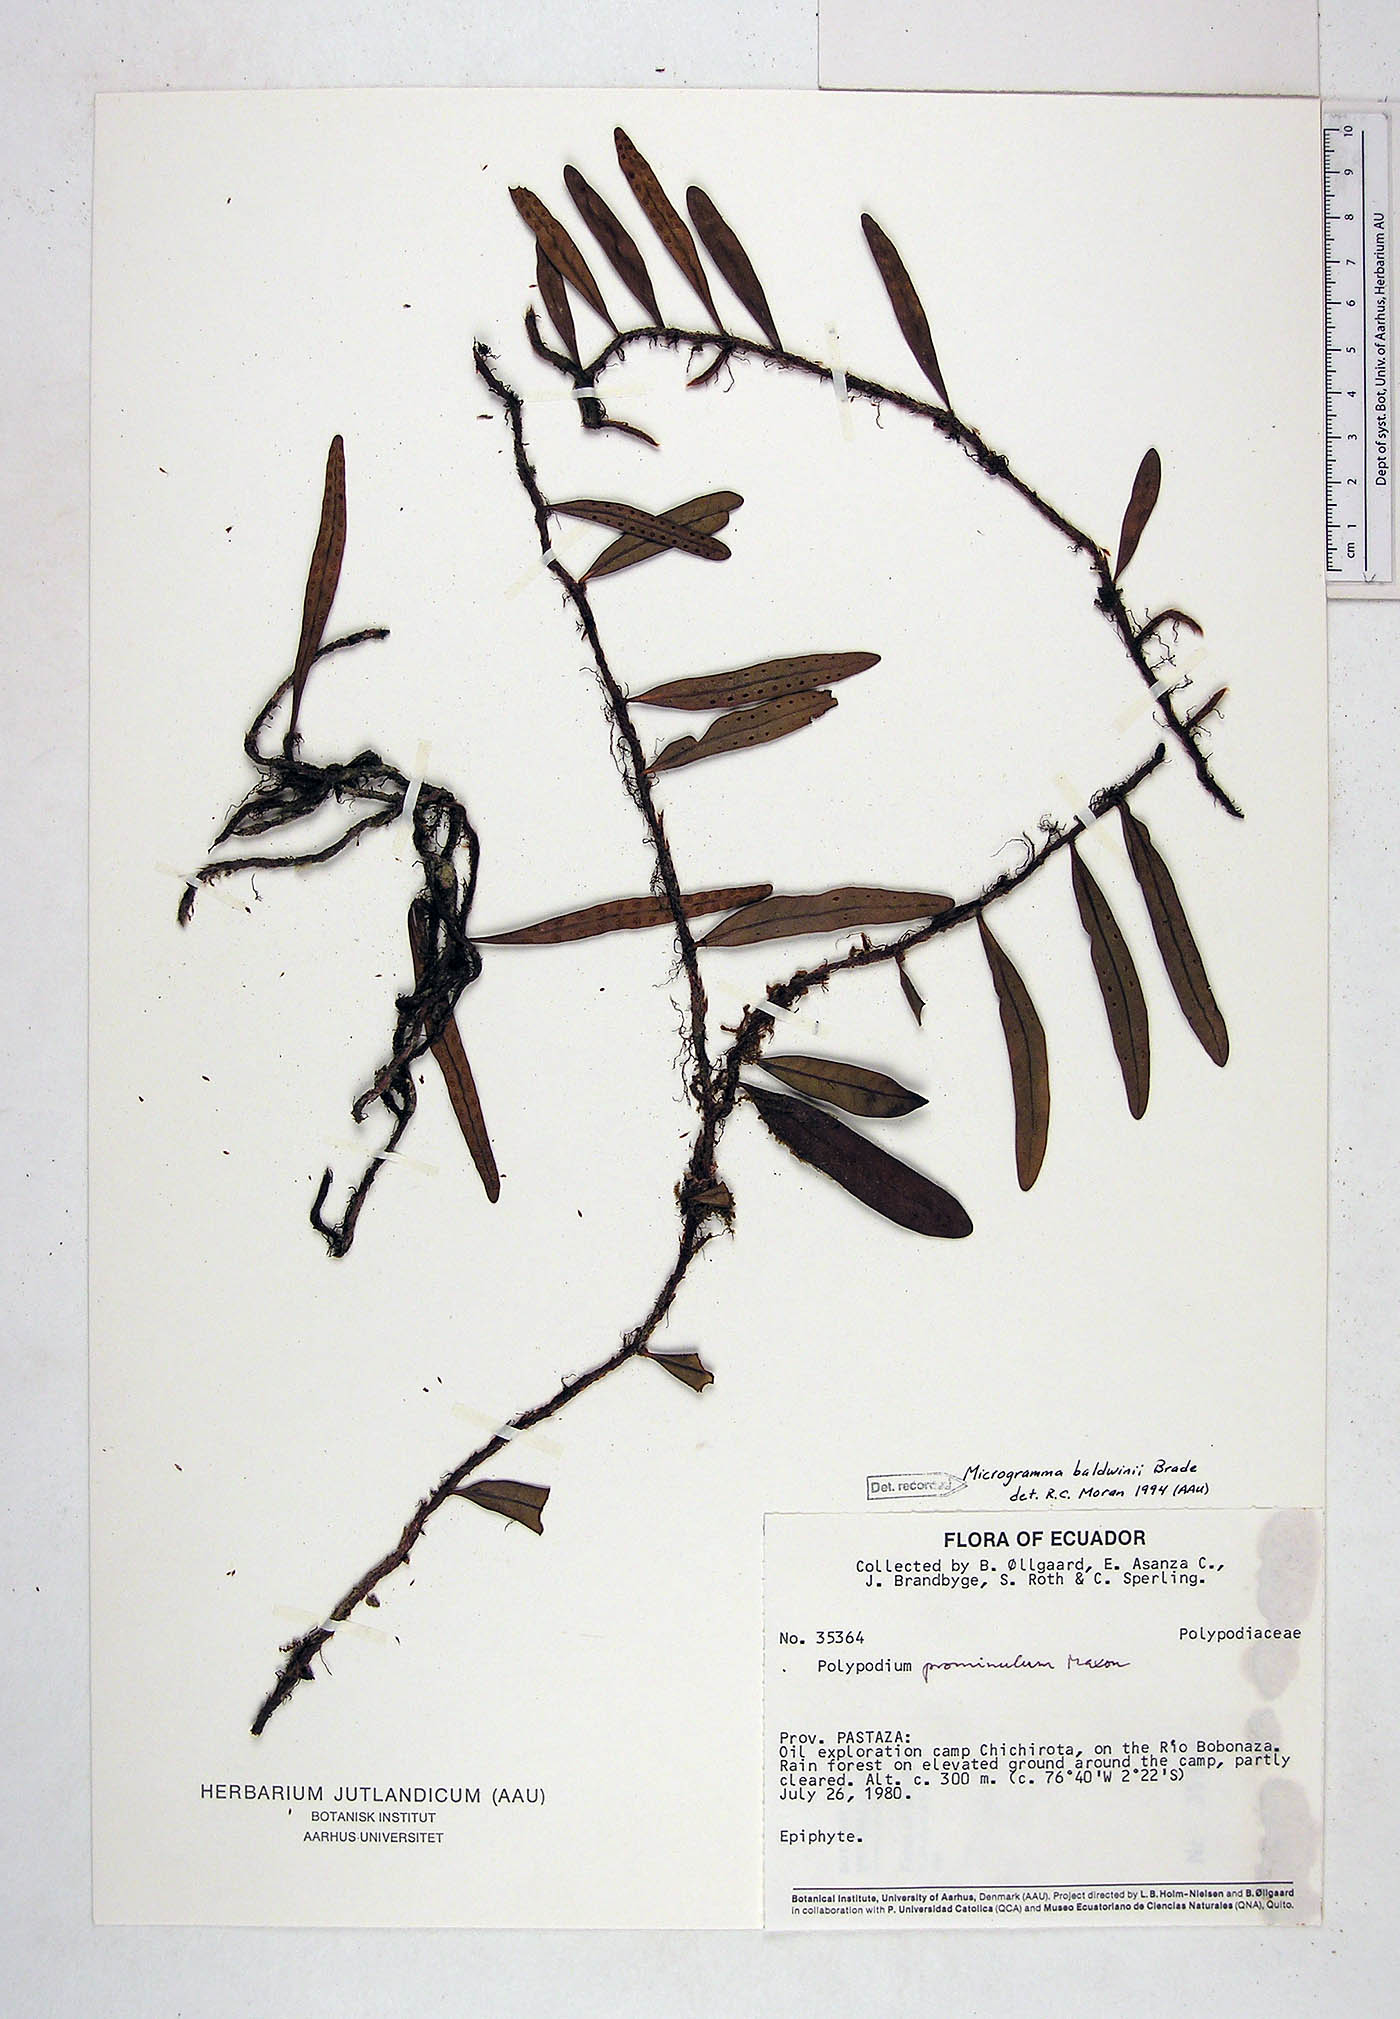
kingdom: Plantae
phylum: Tracheophyta
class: Polypodiopsida
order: Polypodiales
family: Polypodiaceae
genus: Microgramma
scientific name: Microgramma baldwinii
